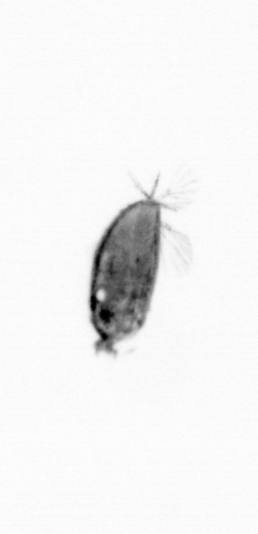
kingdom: Animalia
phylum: Arthropoda
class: Maxillopoda
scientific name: Maxillopoda
